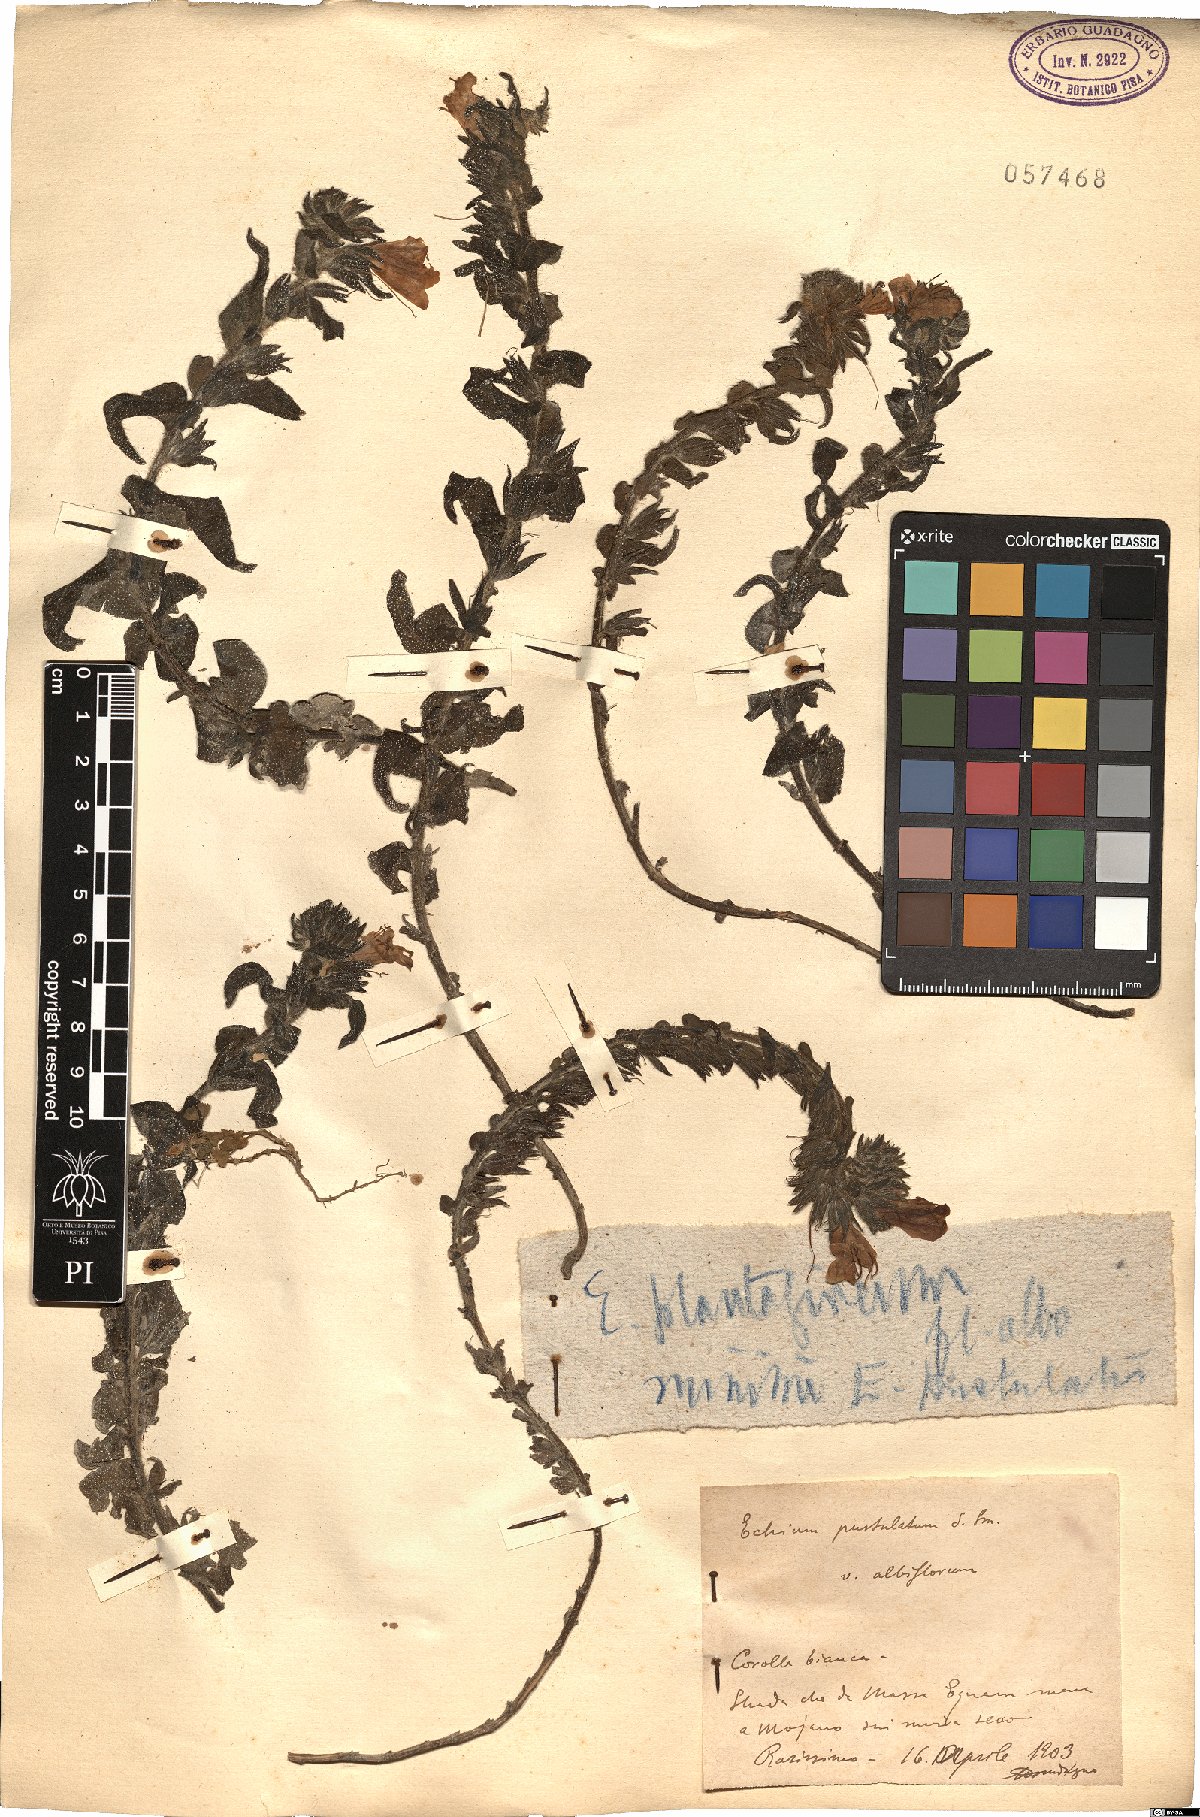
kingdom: Plantae
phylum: Tracheophyta
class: Magnoliopsida
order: Boraginales
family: Boraginaceae
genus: Echium
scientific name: Echium plantagineum
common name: Purple viper's-bugloss
